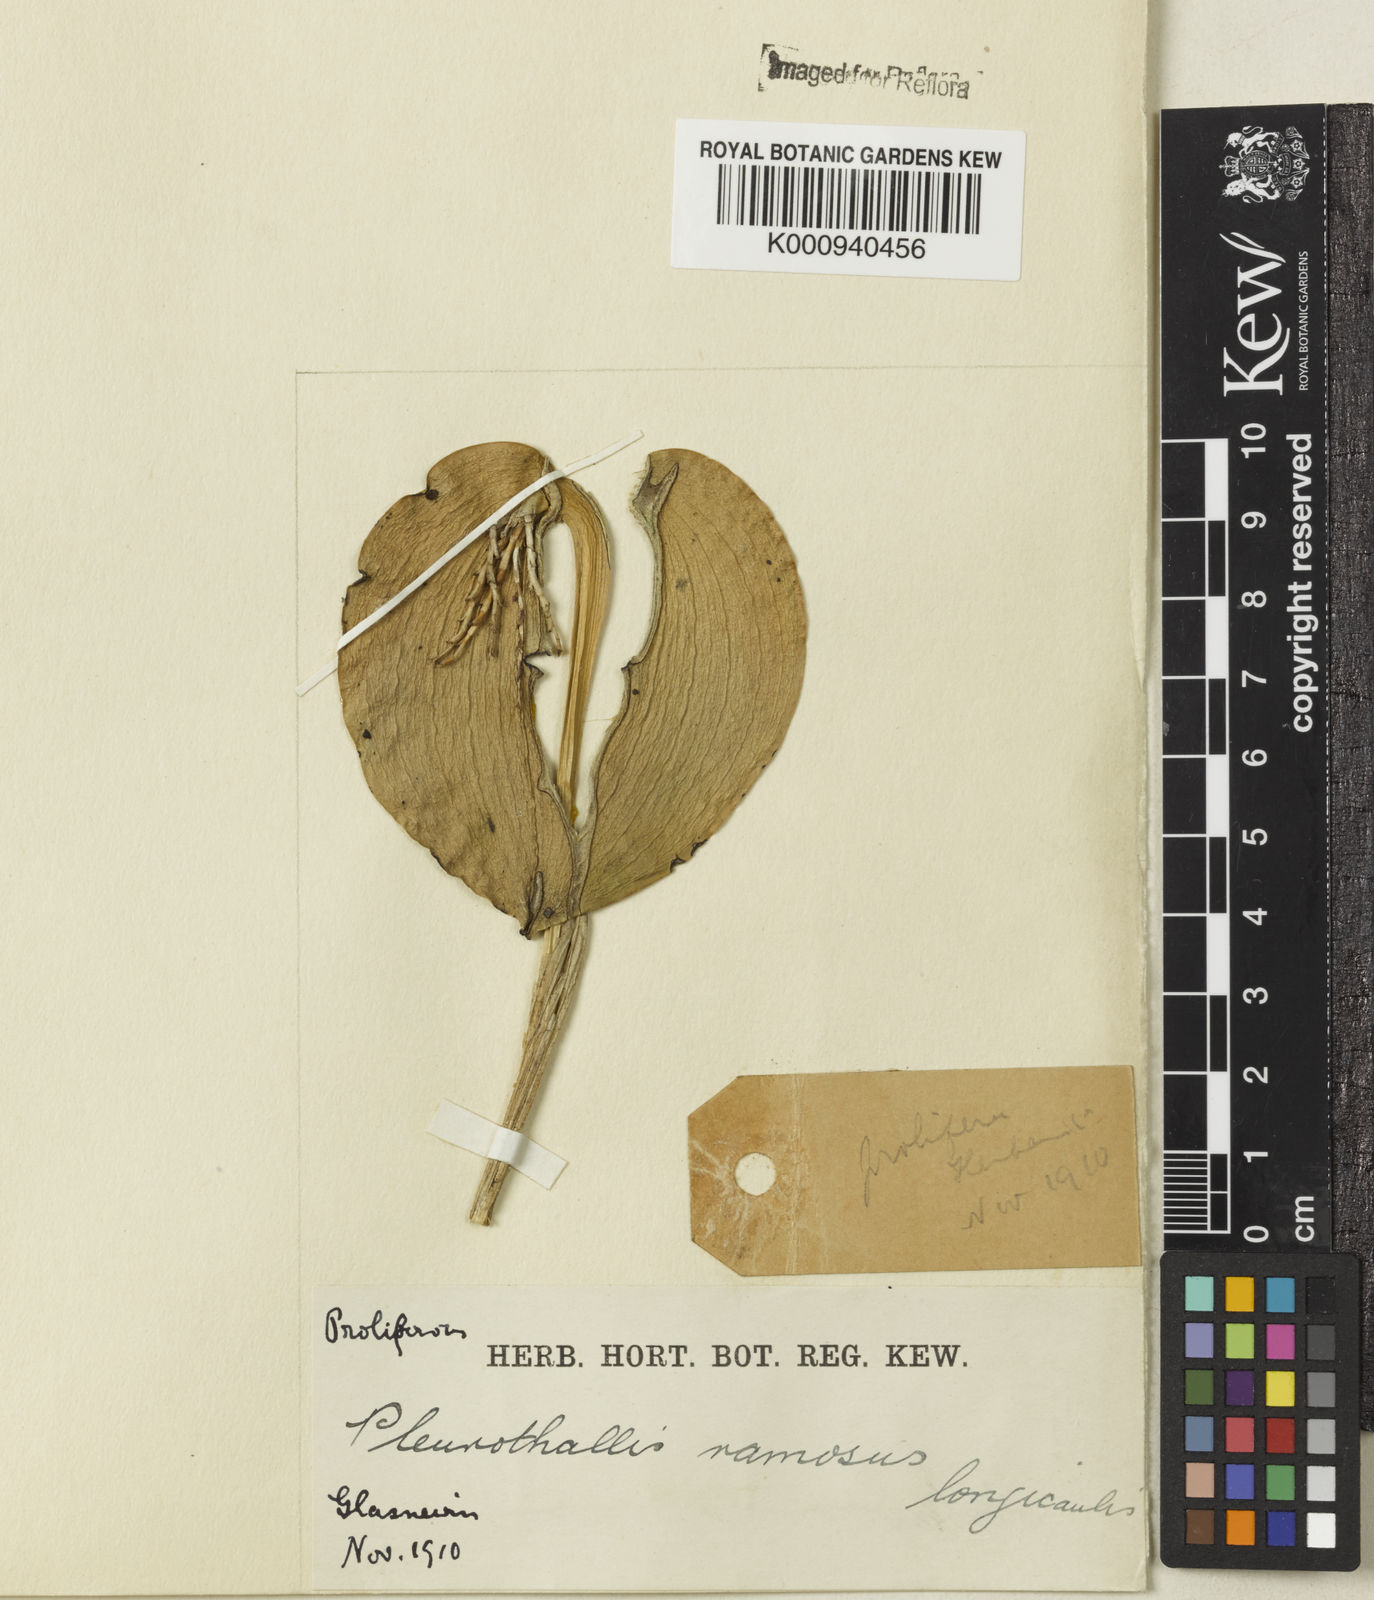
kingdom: Plantae
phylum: Tracheophyta
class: Liliopsida
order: Asparagales
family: Orchidaceae
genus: Acianthera
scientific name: Acianthera prolifera
